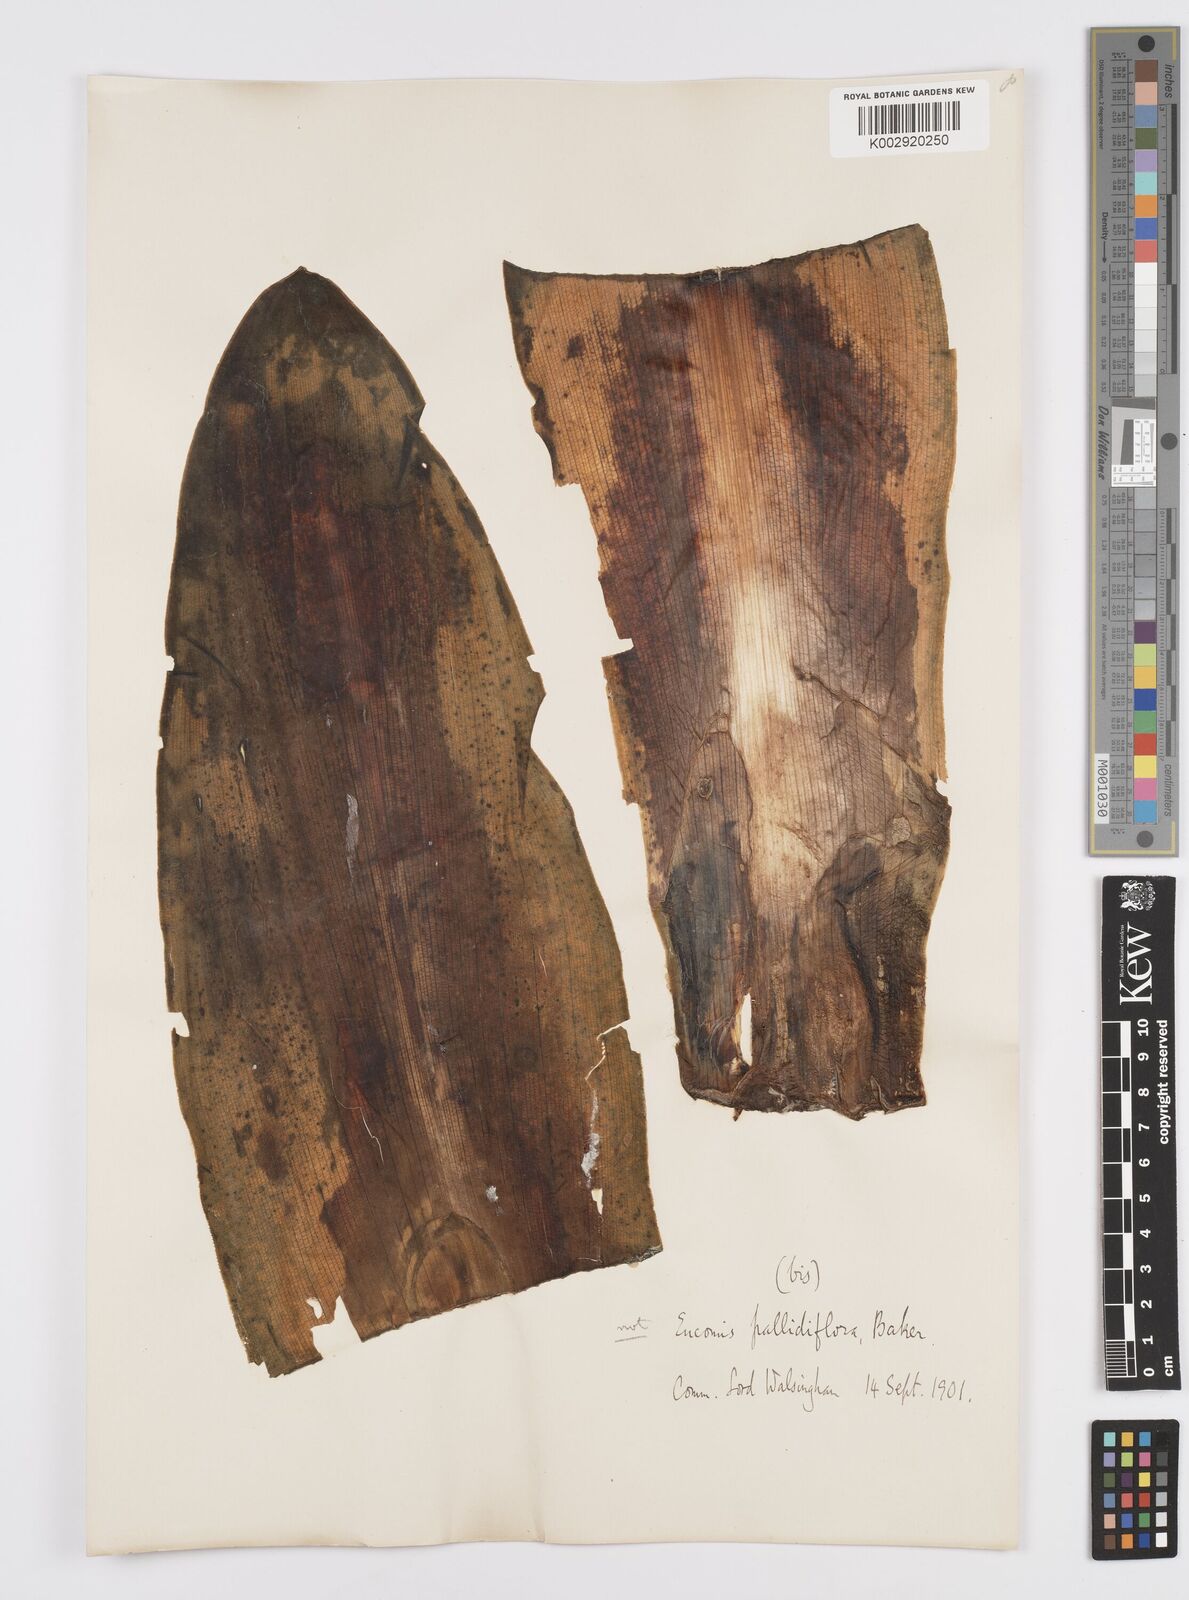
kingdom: Plantae
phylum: Tracheophyta
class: Liliopsida
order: Asparagales
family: Asparagaceae
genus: Eucomis
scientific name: Eucomis pallidiflora
